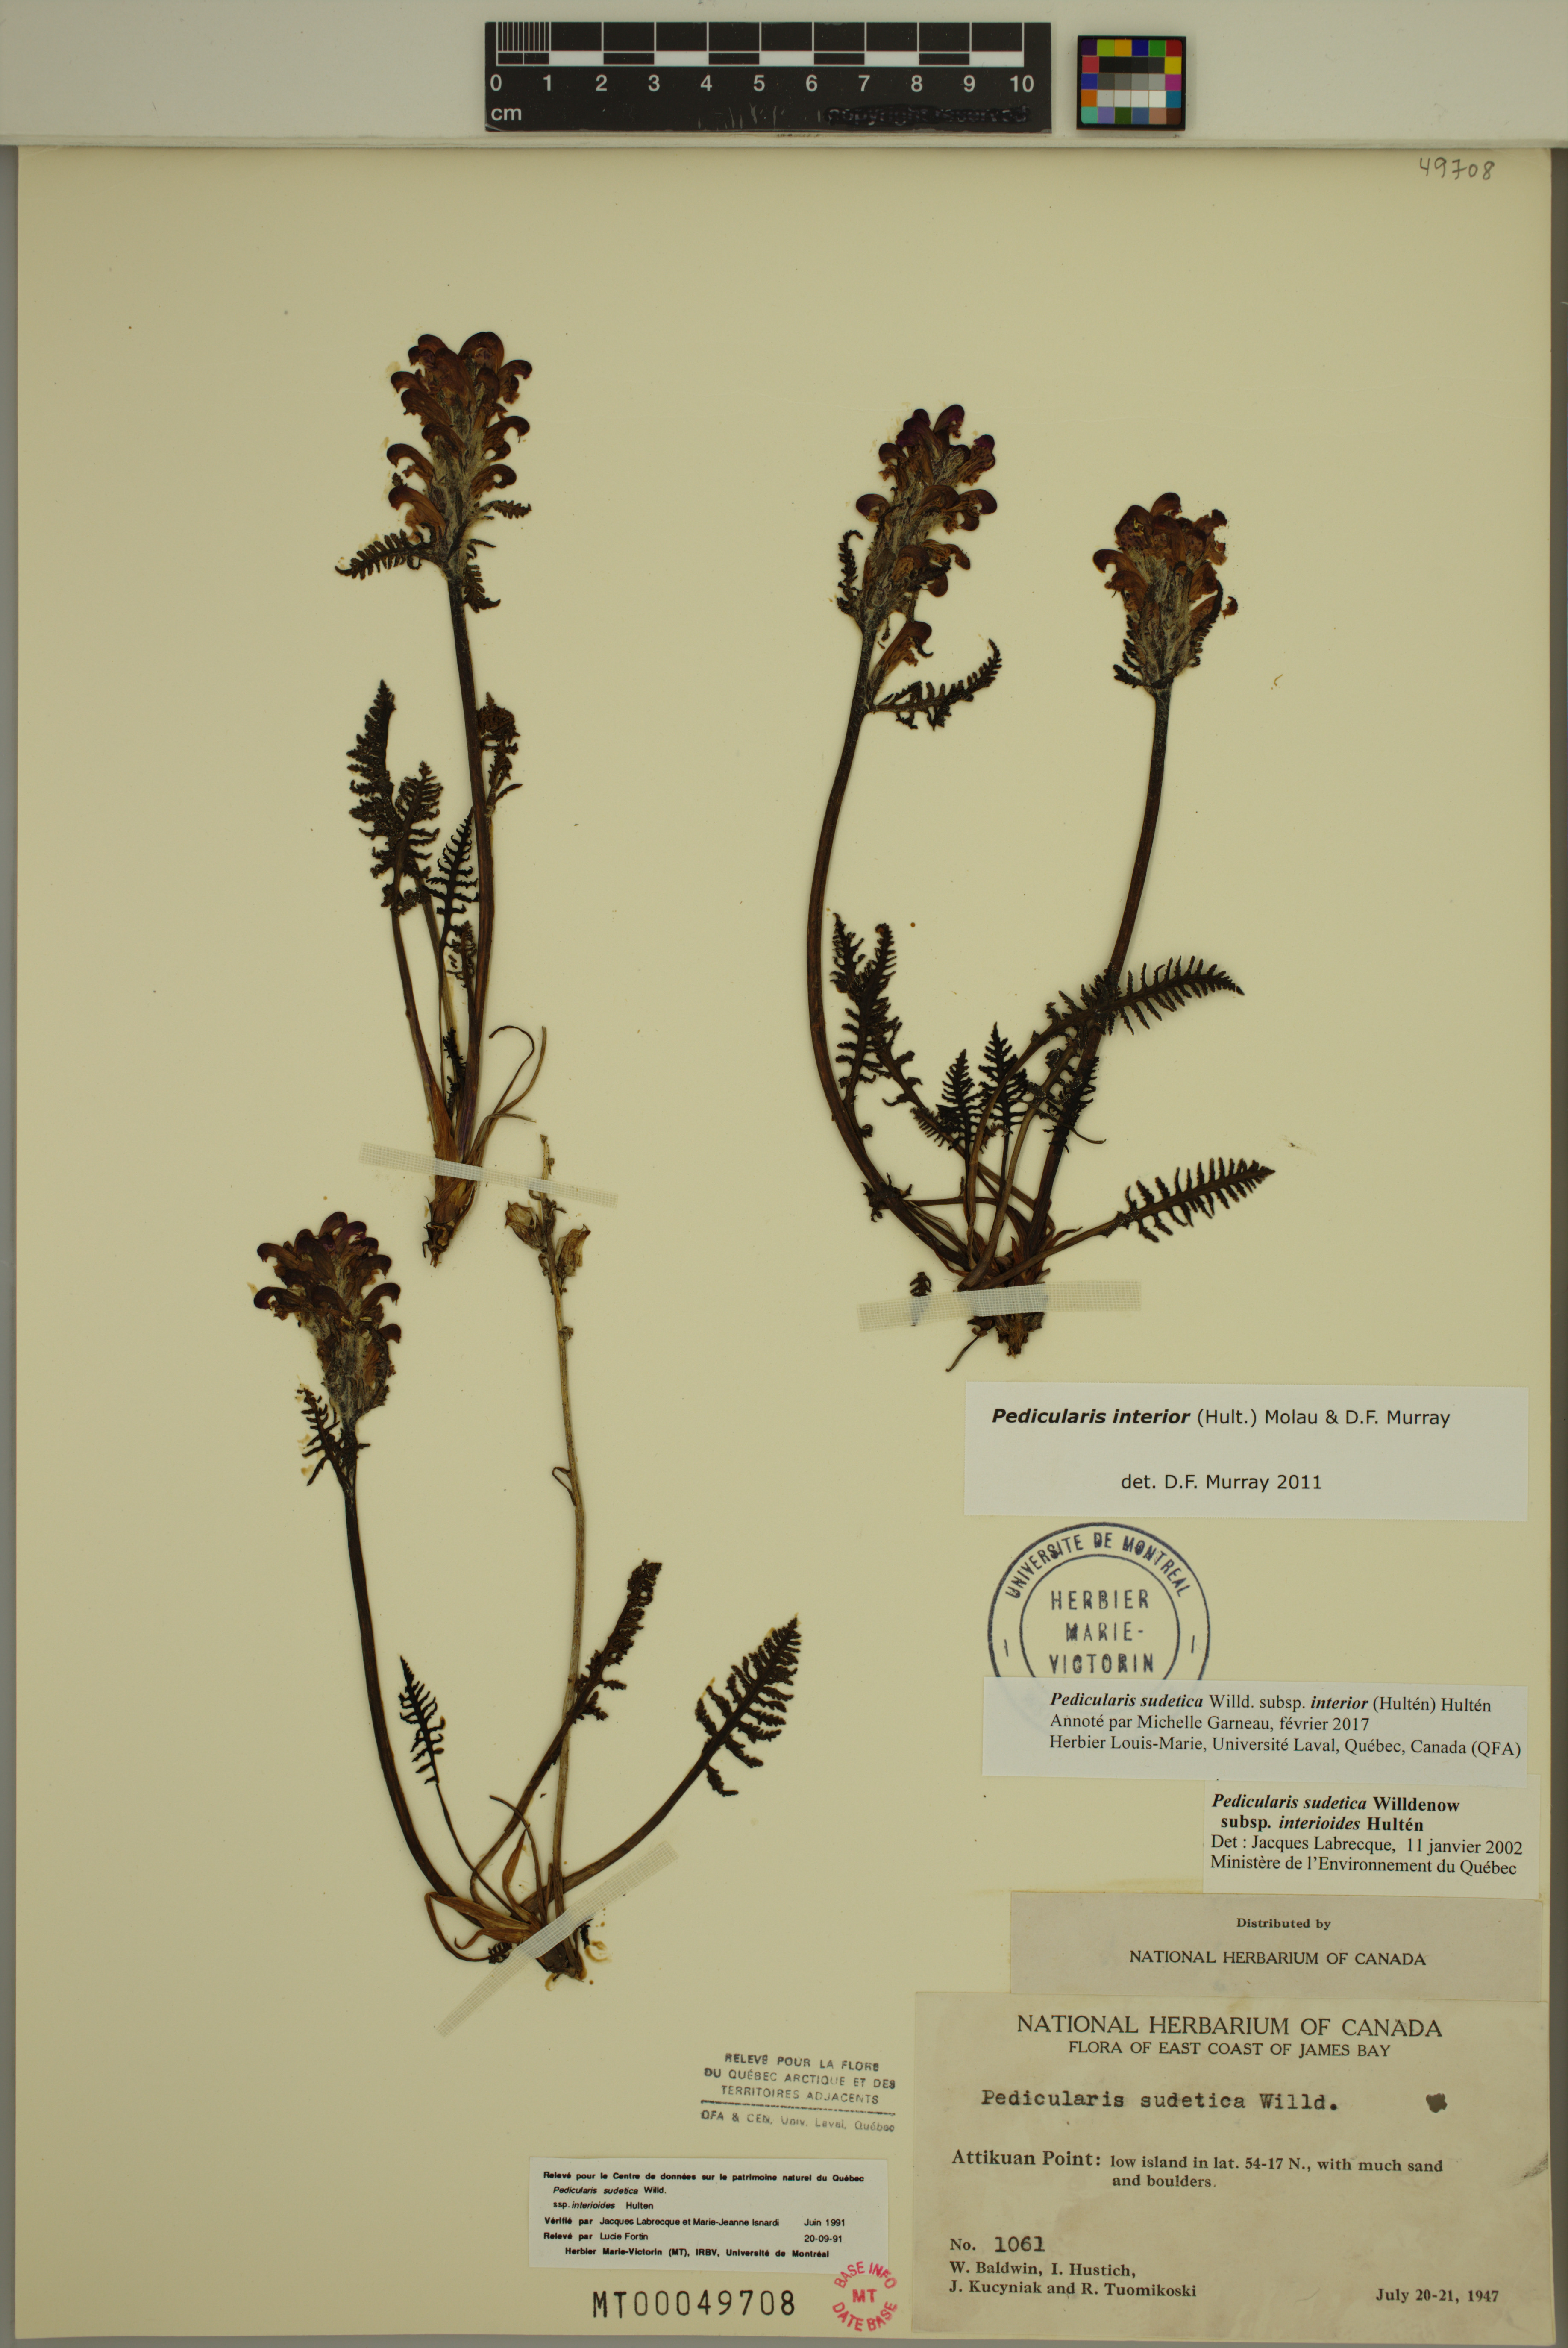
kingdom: Plantae
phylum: Tracheophyta
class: Magnoliopsida
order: Lamiales
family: Orobanchaceae
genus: Pedicularis
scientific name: Pedicularis interior
